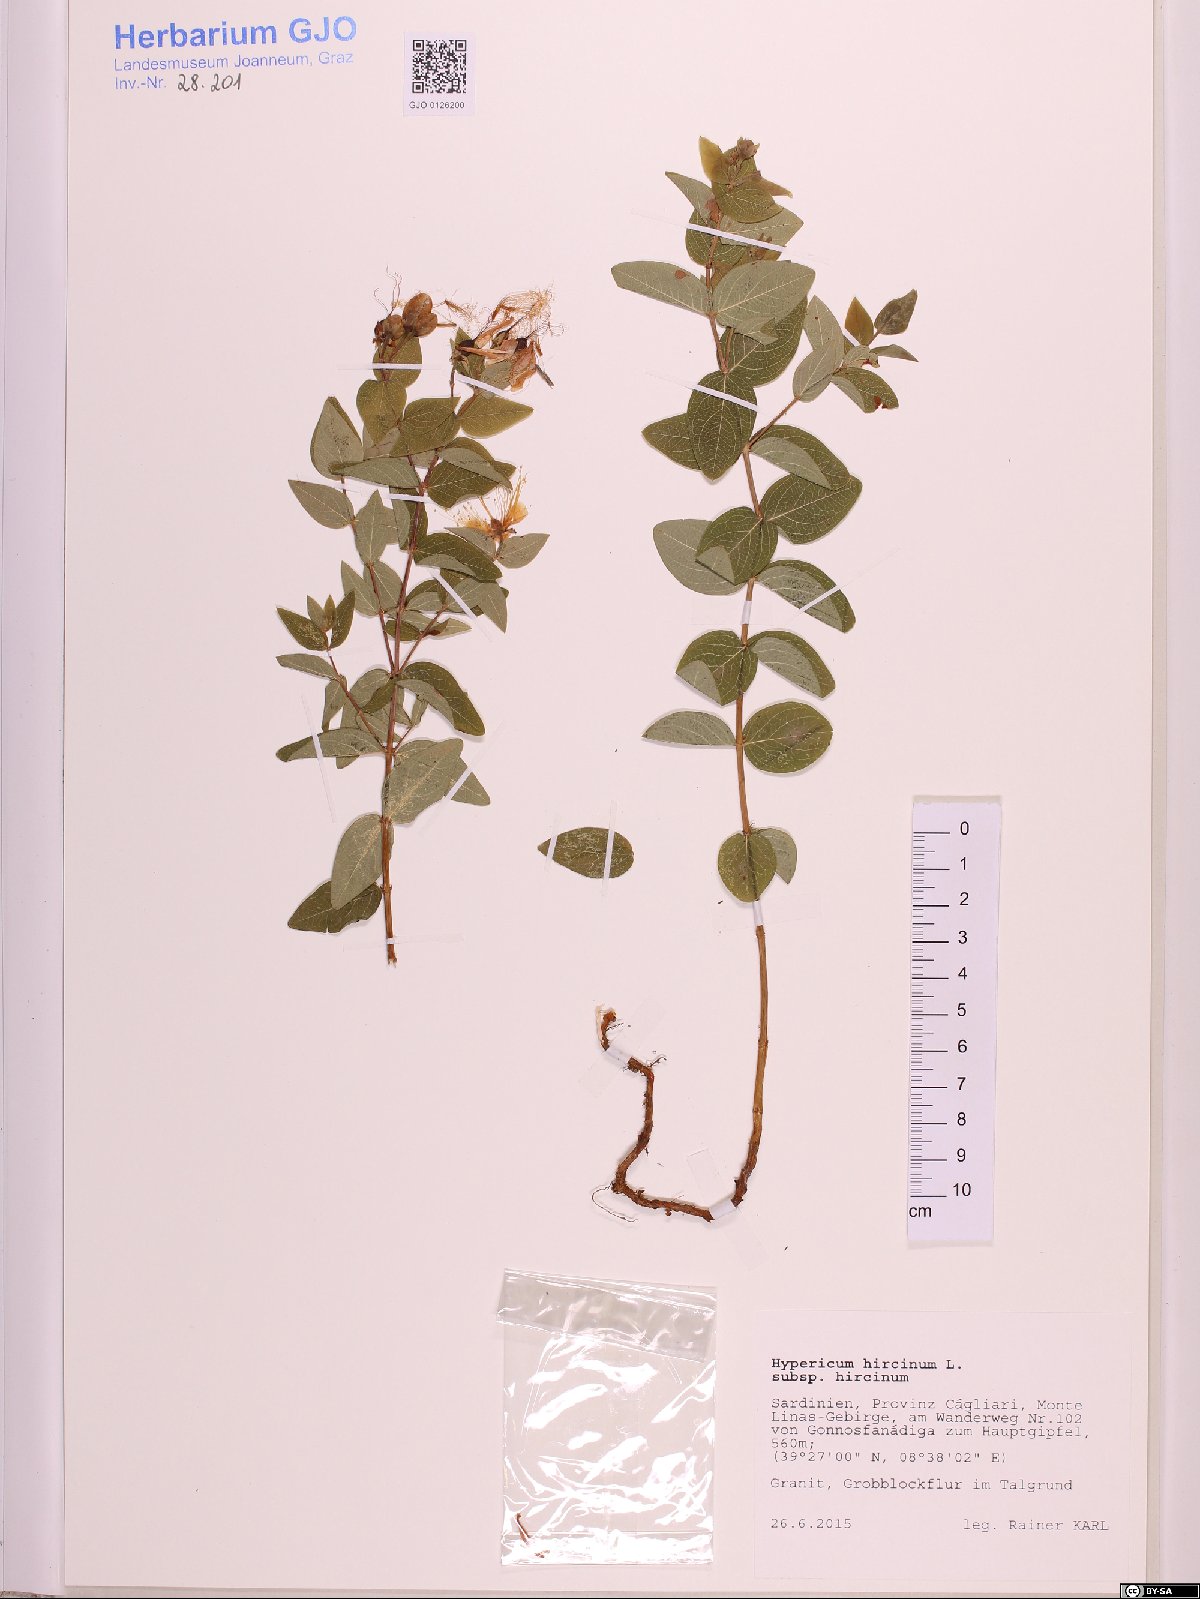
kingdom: Plantae
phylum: Tracheophyta
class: Magnoliopsida
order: Malpighiales
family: Hypericaceae
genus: Hypericum
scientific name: Hypericum hircinum
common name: Stinking tutsan
